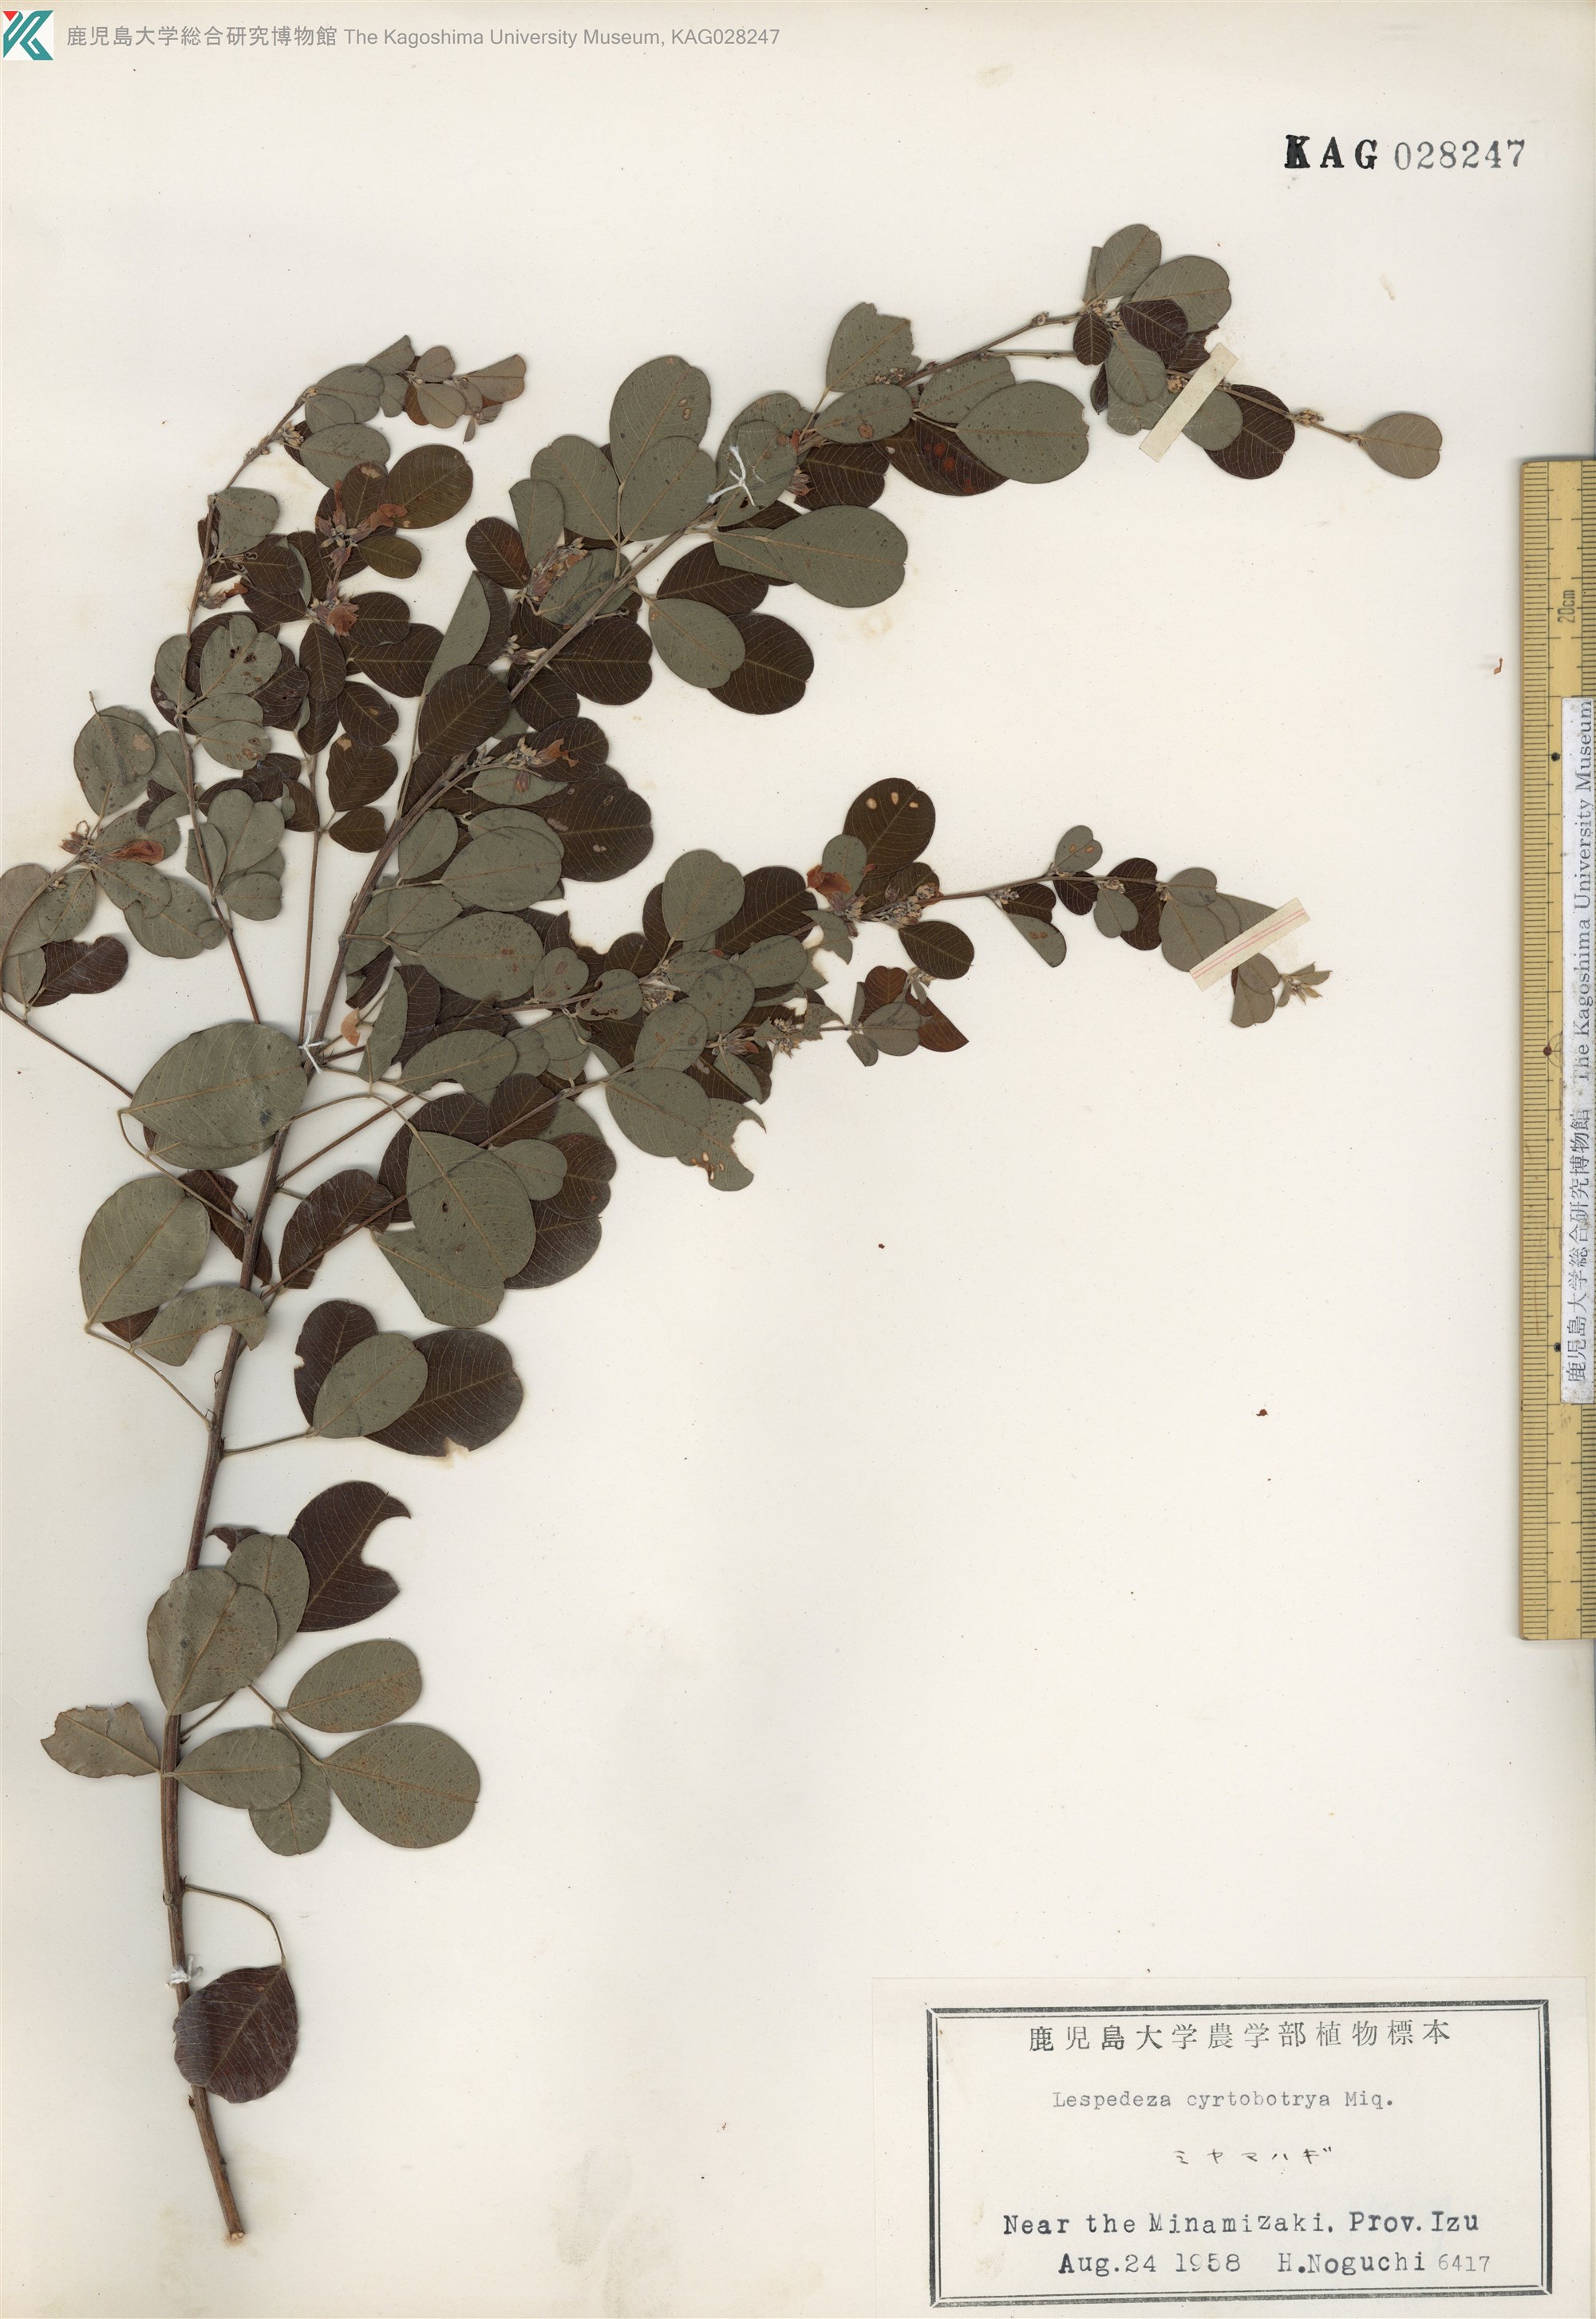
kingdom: Plantae
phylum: Tracheophyta
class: Magnoliopsida
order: Fabales
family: Fabaceae
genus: Lespedeza
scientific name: Lespedeza cyrtobotrya
